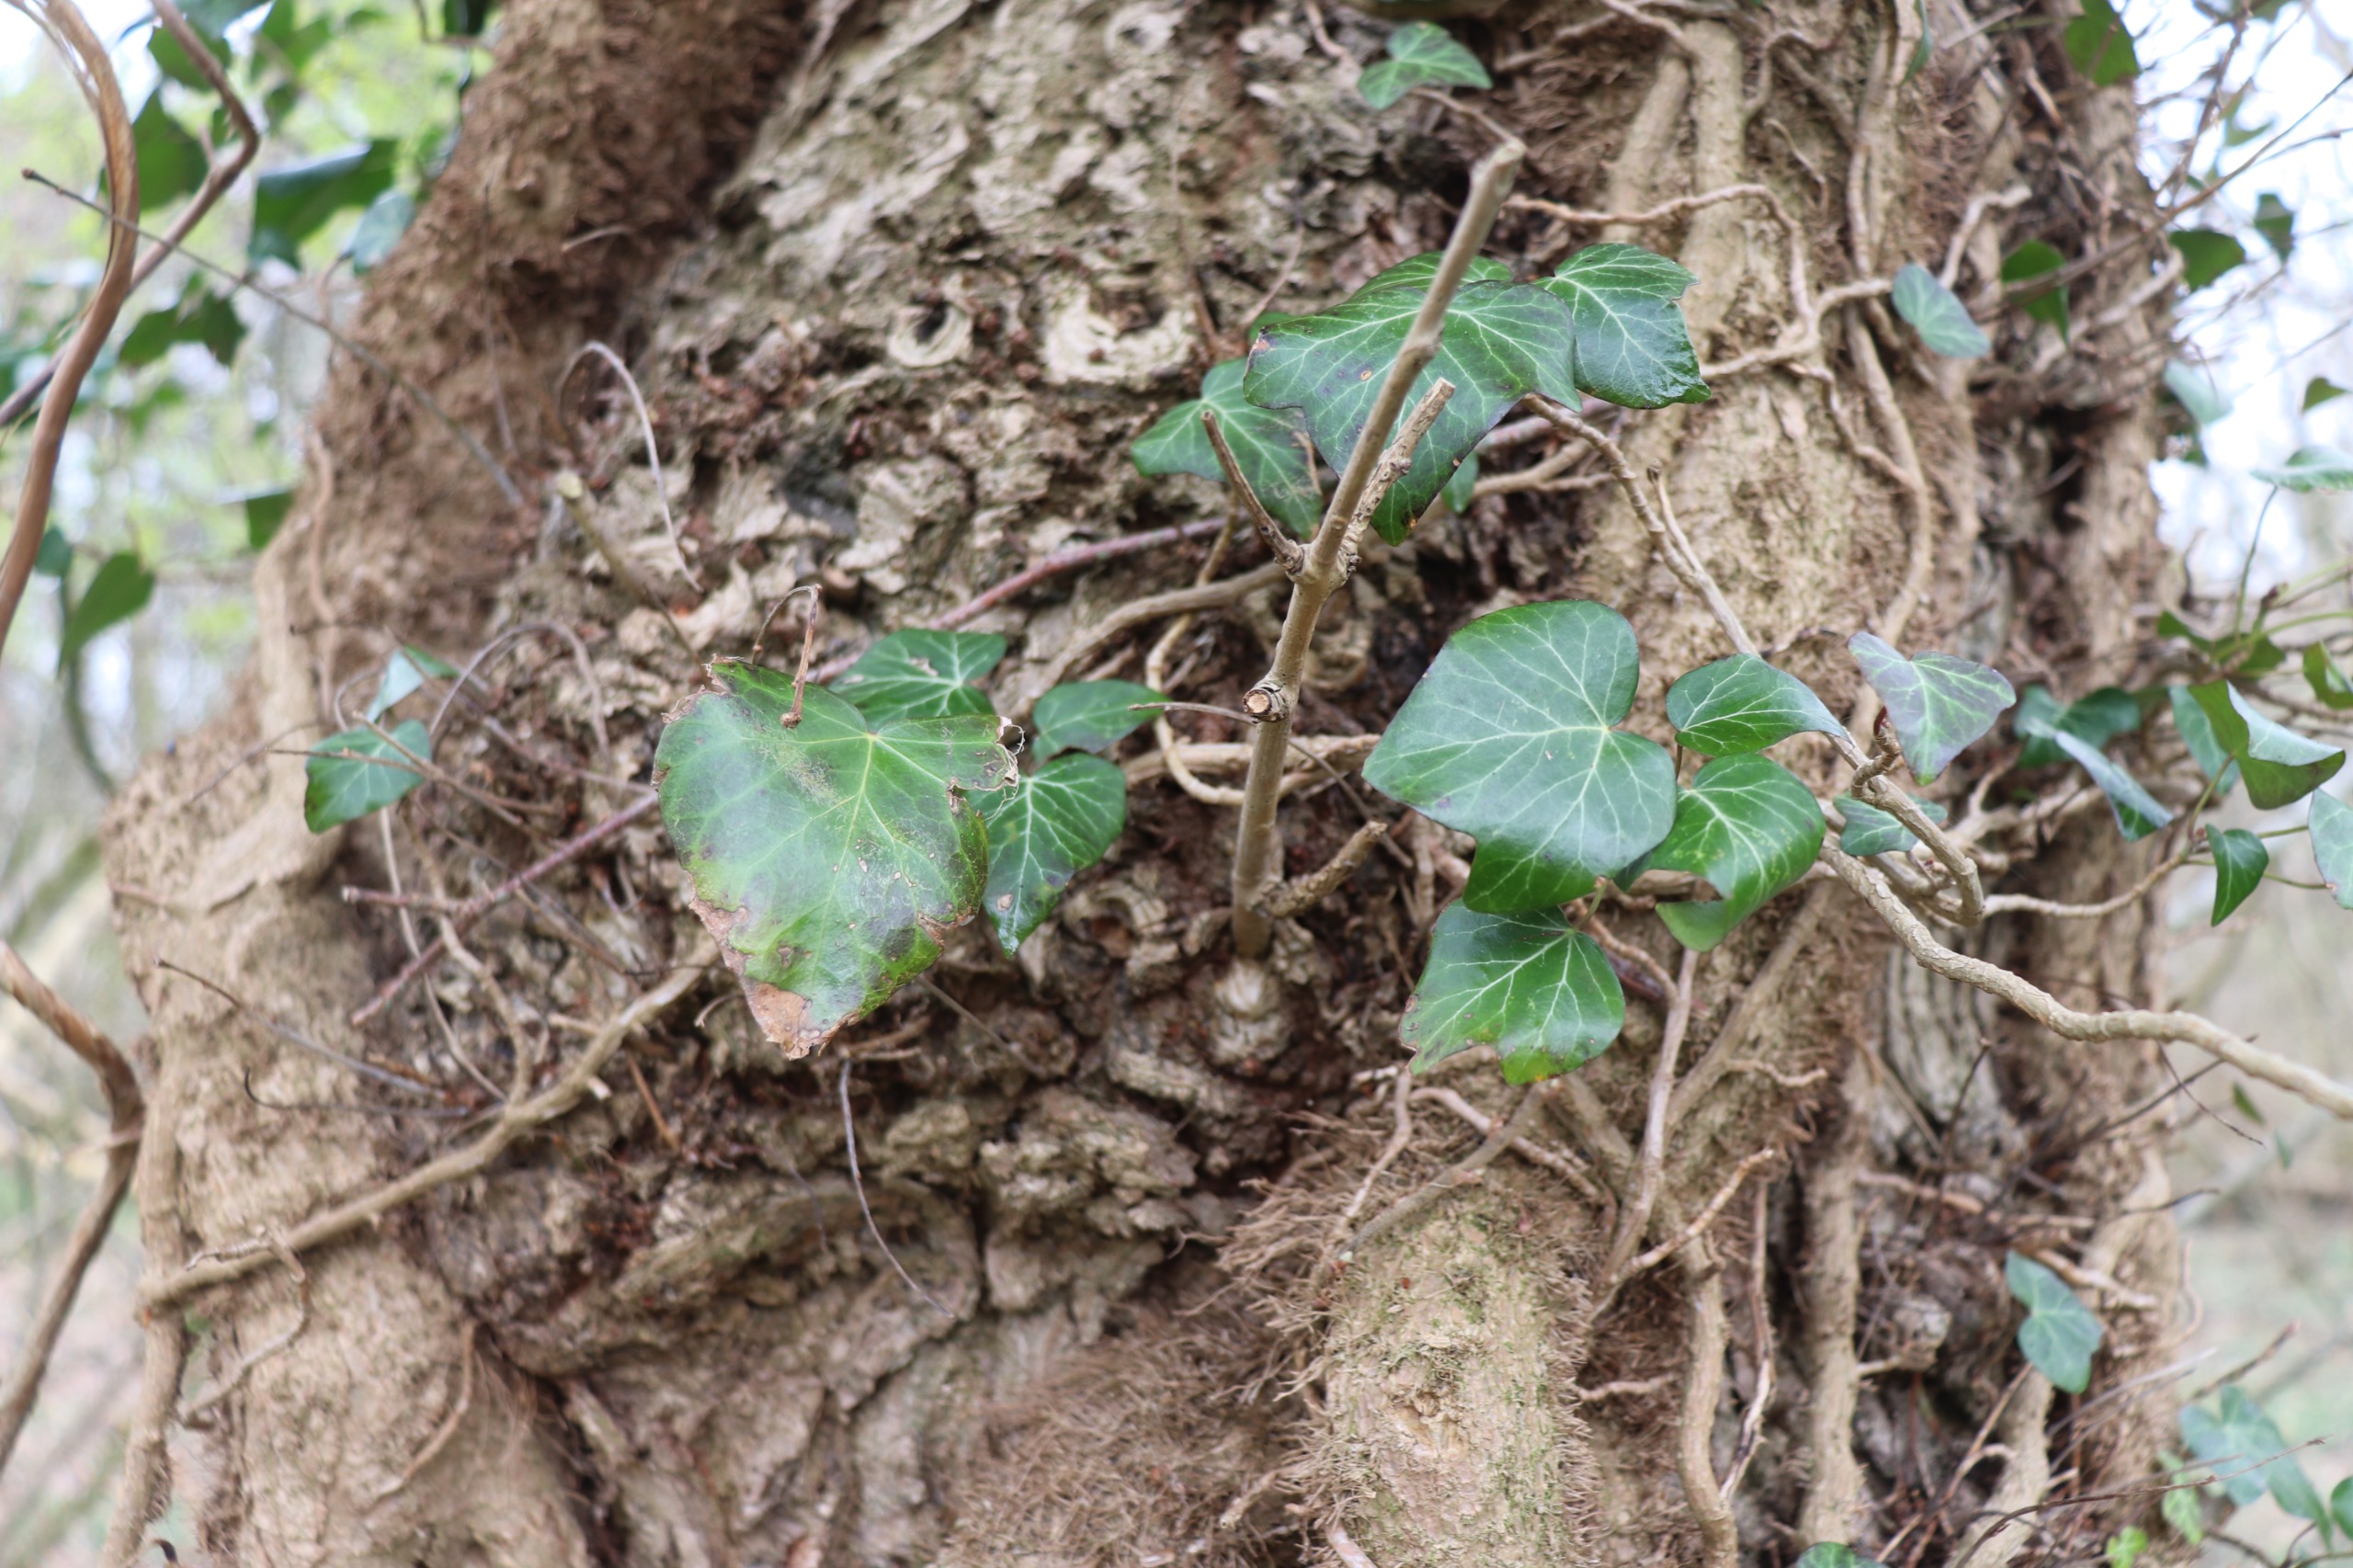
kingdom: Plantae
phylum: Tracheophyta
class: Magnoliopsida
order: Apiales
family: Araliaceae
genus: Hedera
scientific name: Hedera helix
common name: Vedbend
